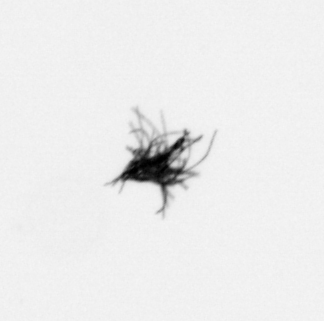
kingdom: Bacteria
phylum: Cyanobacteria
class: Cyanobacteriia
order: Cyanobacteriales
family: Microcoleaceae
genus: Trichodesmium
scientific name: Trichodesmium
